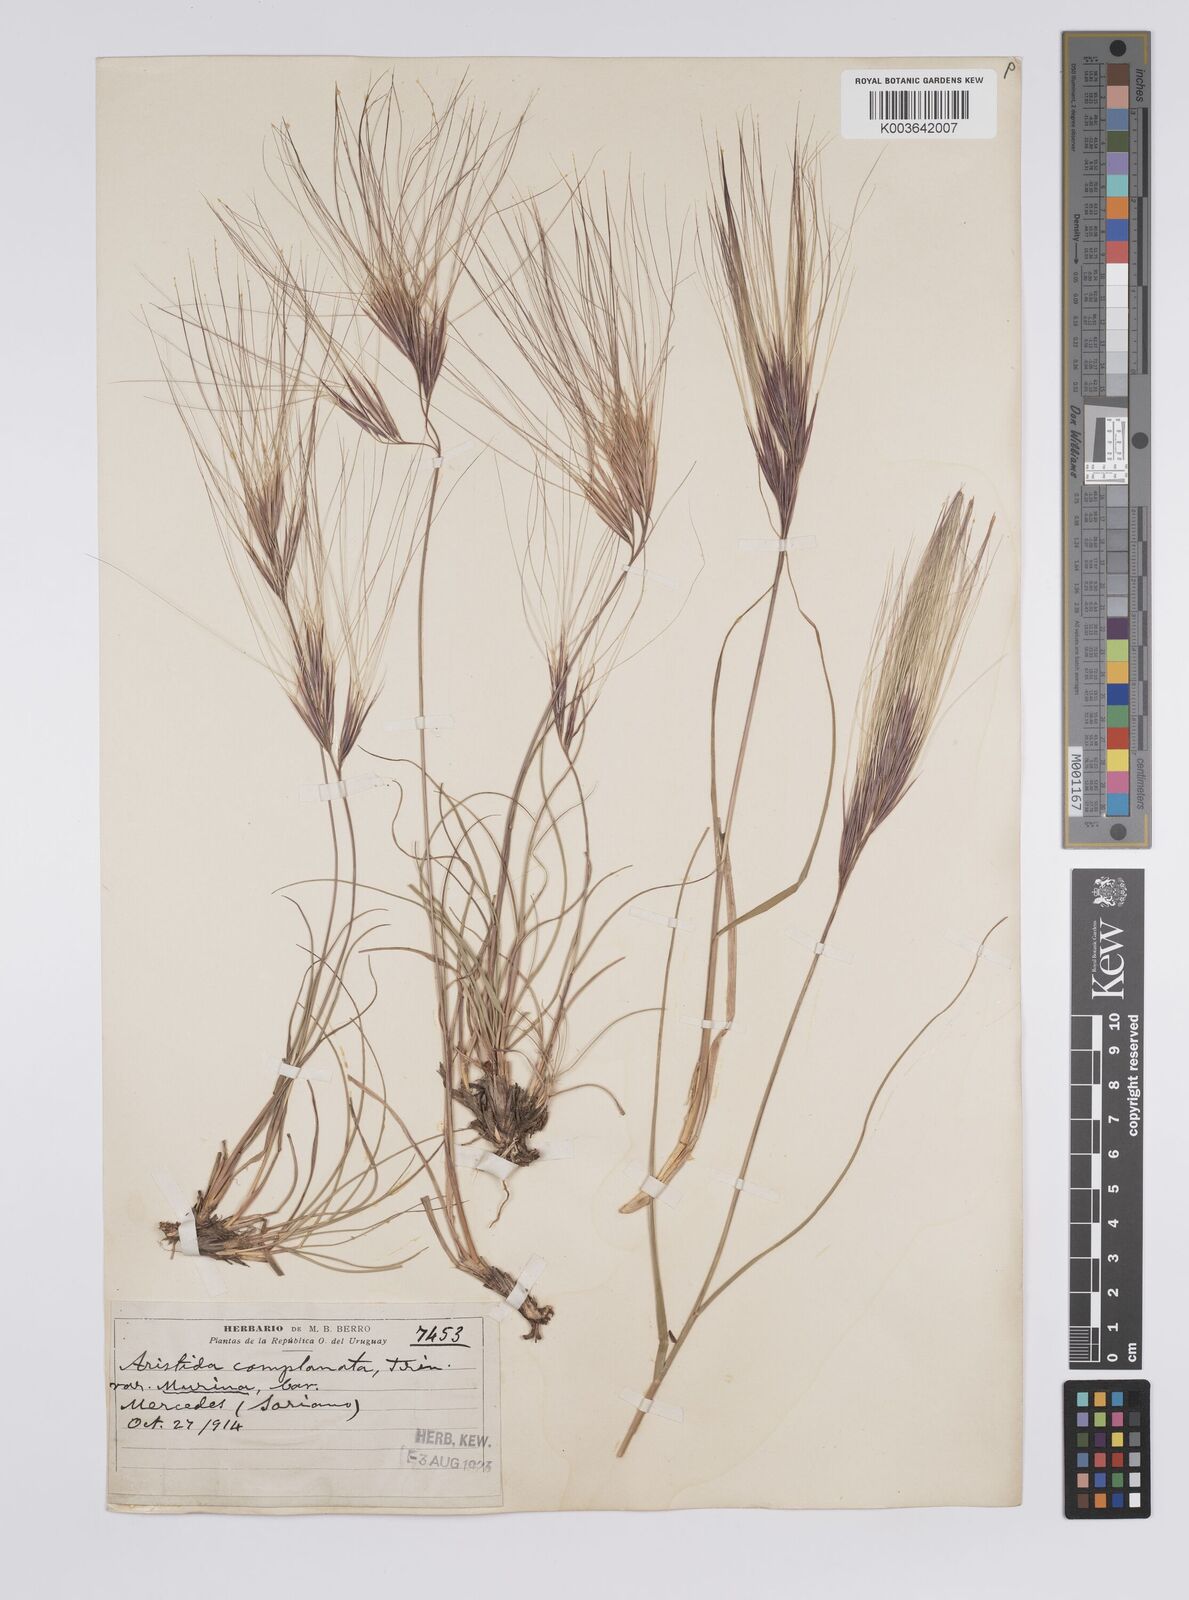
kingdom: Plantae
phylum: Tracheophyta
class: Liliopsida
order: Poales
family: Poaceae
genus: Aristida
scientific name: Aristida murina
